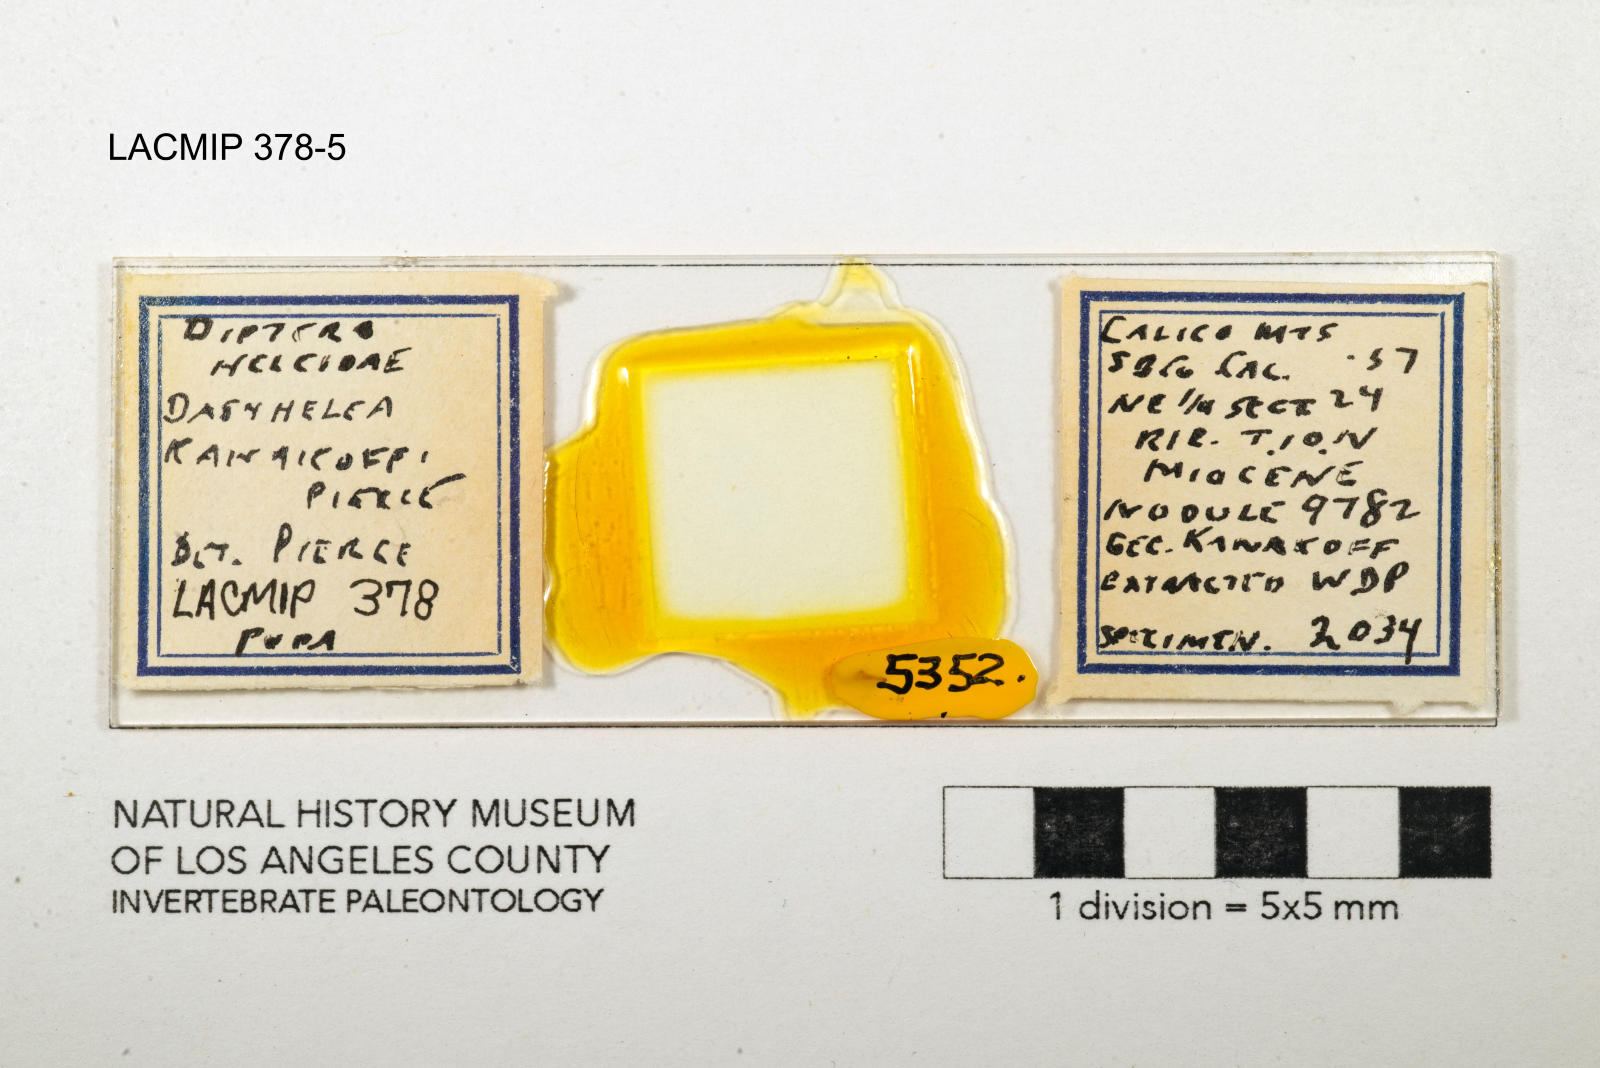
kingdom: Animalia
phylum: Arthropoda
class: Insecta
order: Diptera
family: Ceratopogonidae
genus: Dasyhelea
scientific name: Dasyhelea kanakoffi
